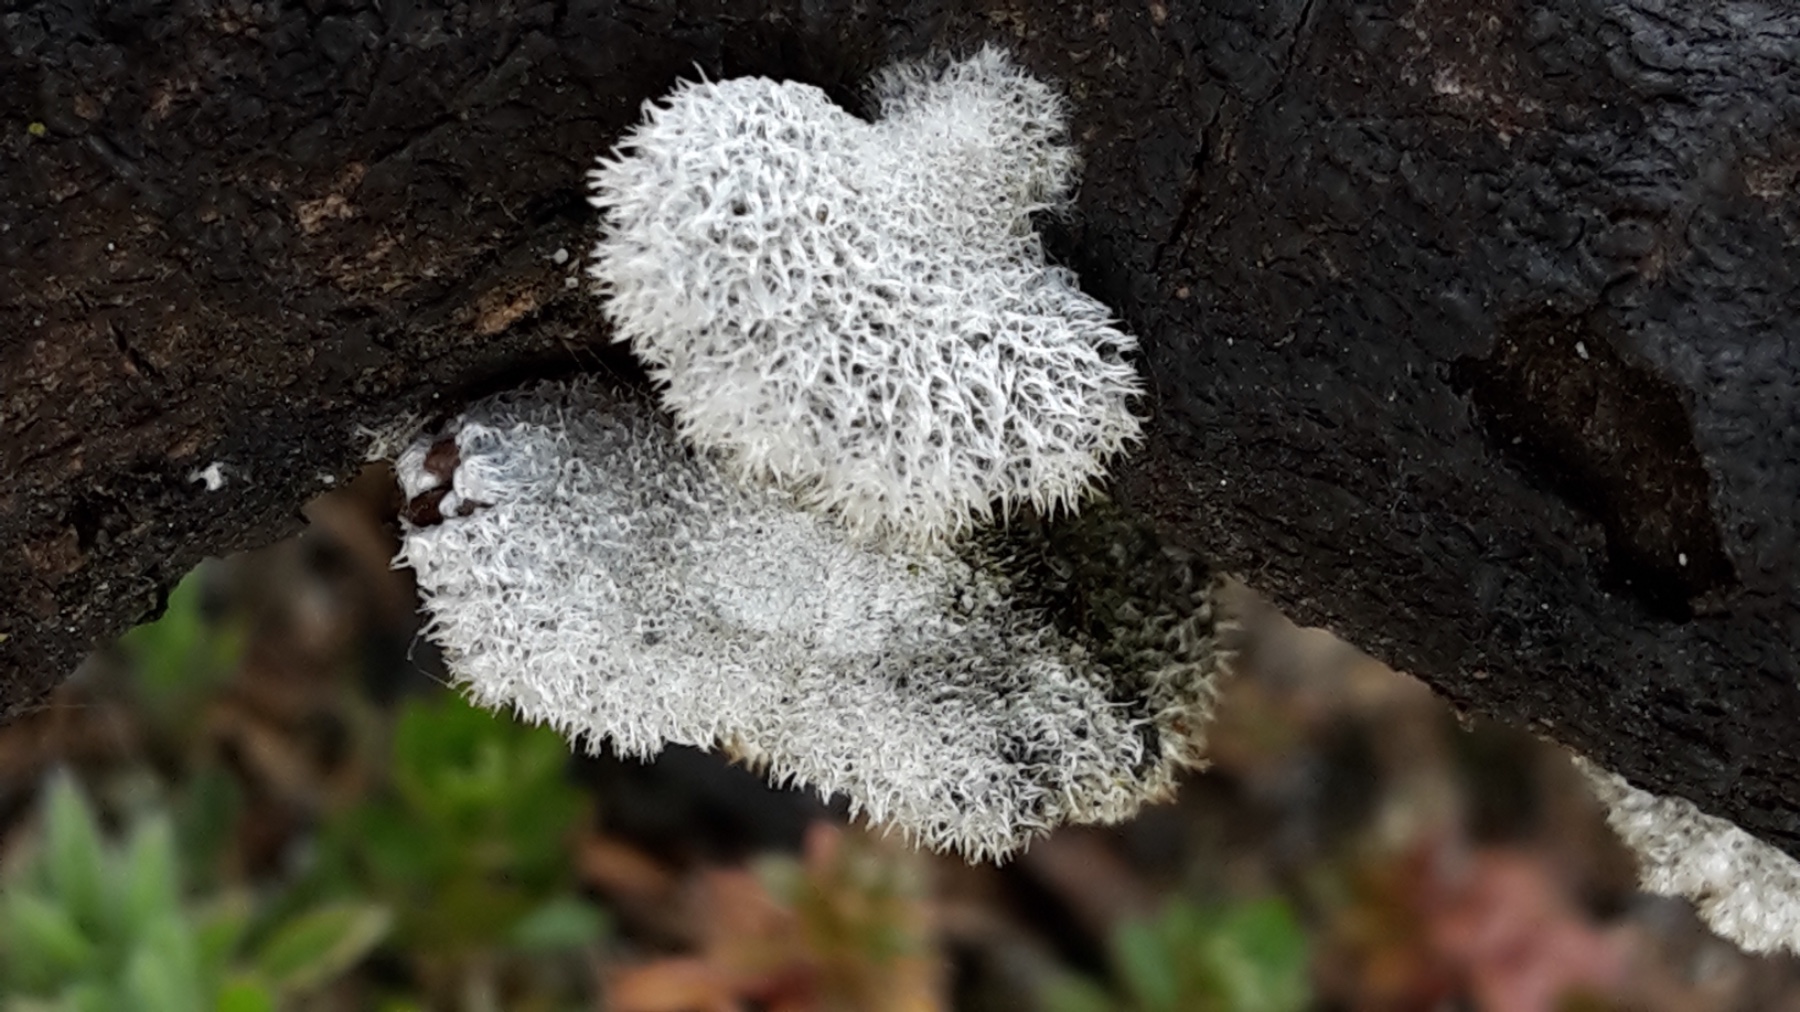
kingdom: Fungi
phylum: Basidiomycota
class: Agaricomycetes
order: Agaricales
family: Schizophyllaceae
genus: Schizophyllum
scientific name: Schizophyllum commune
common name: kløvblad
